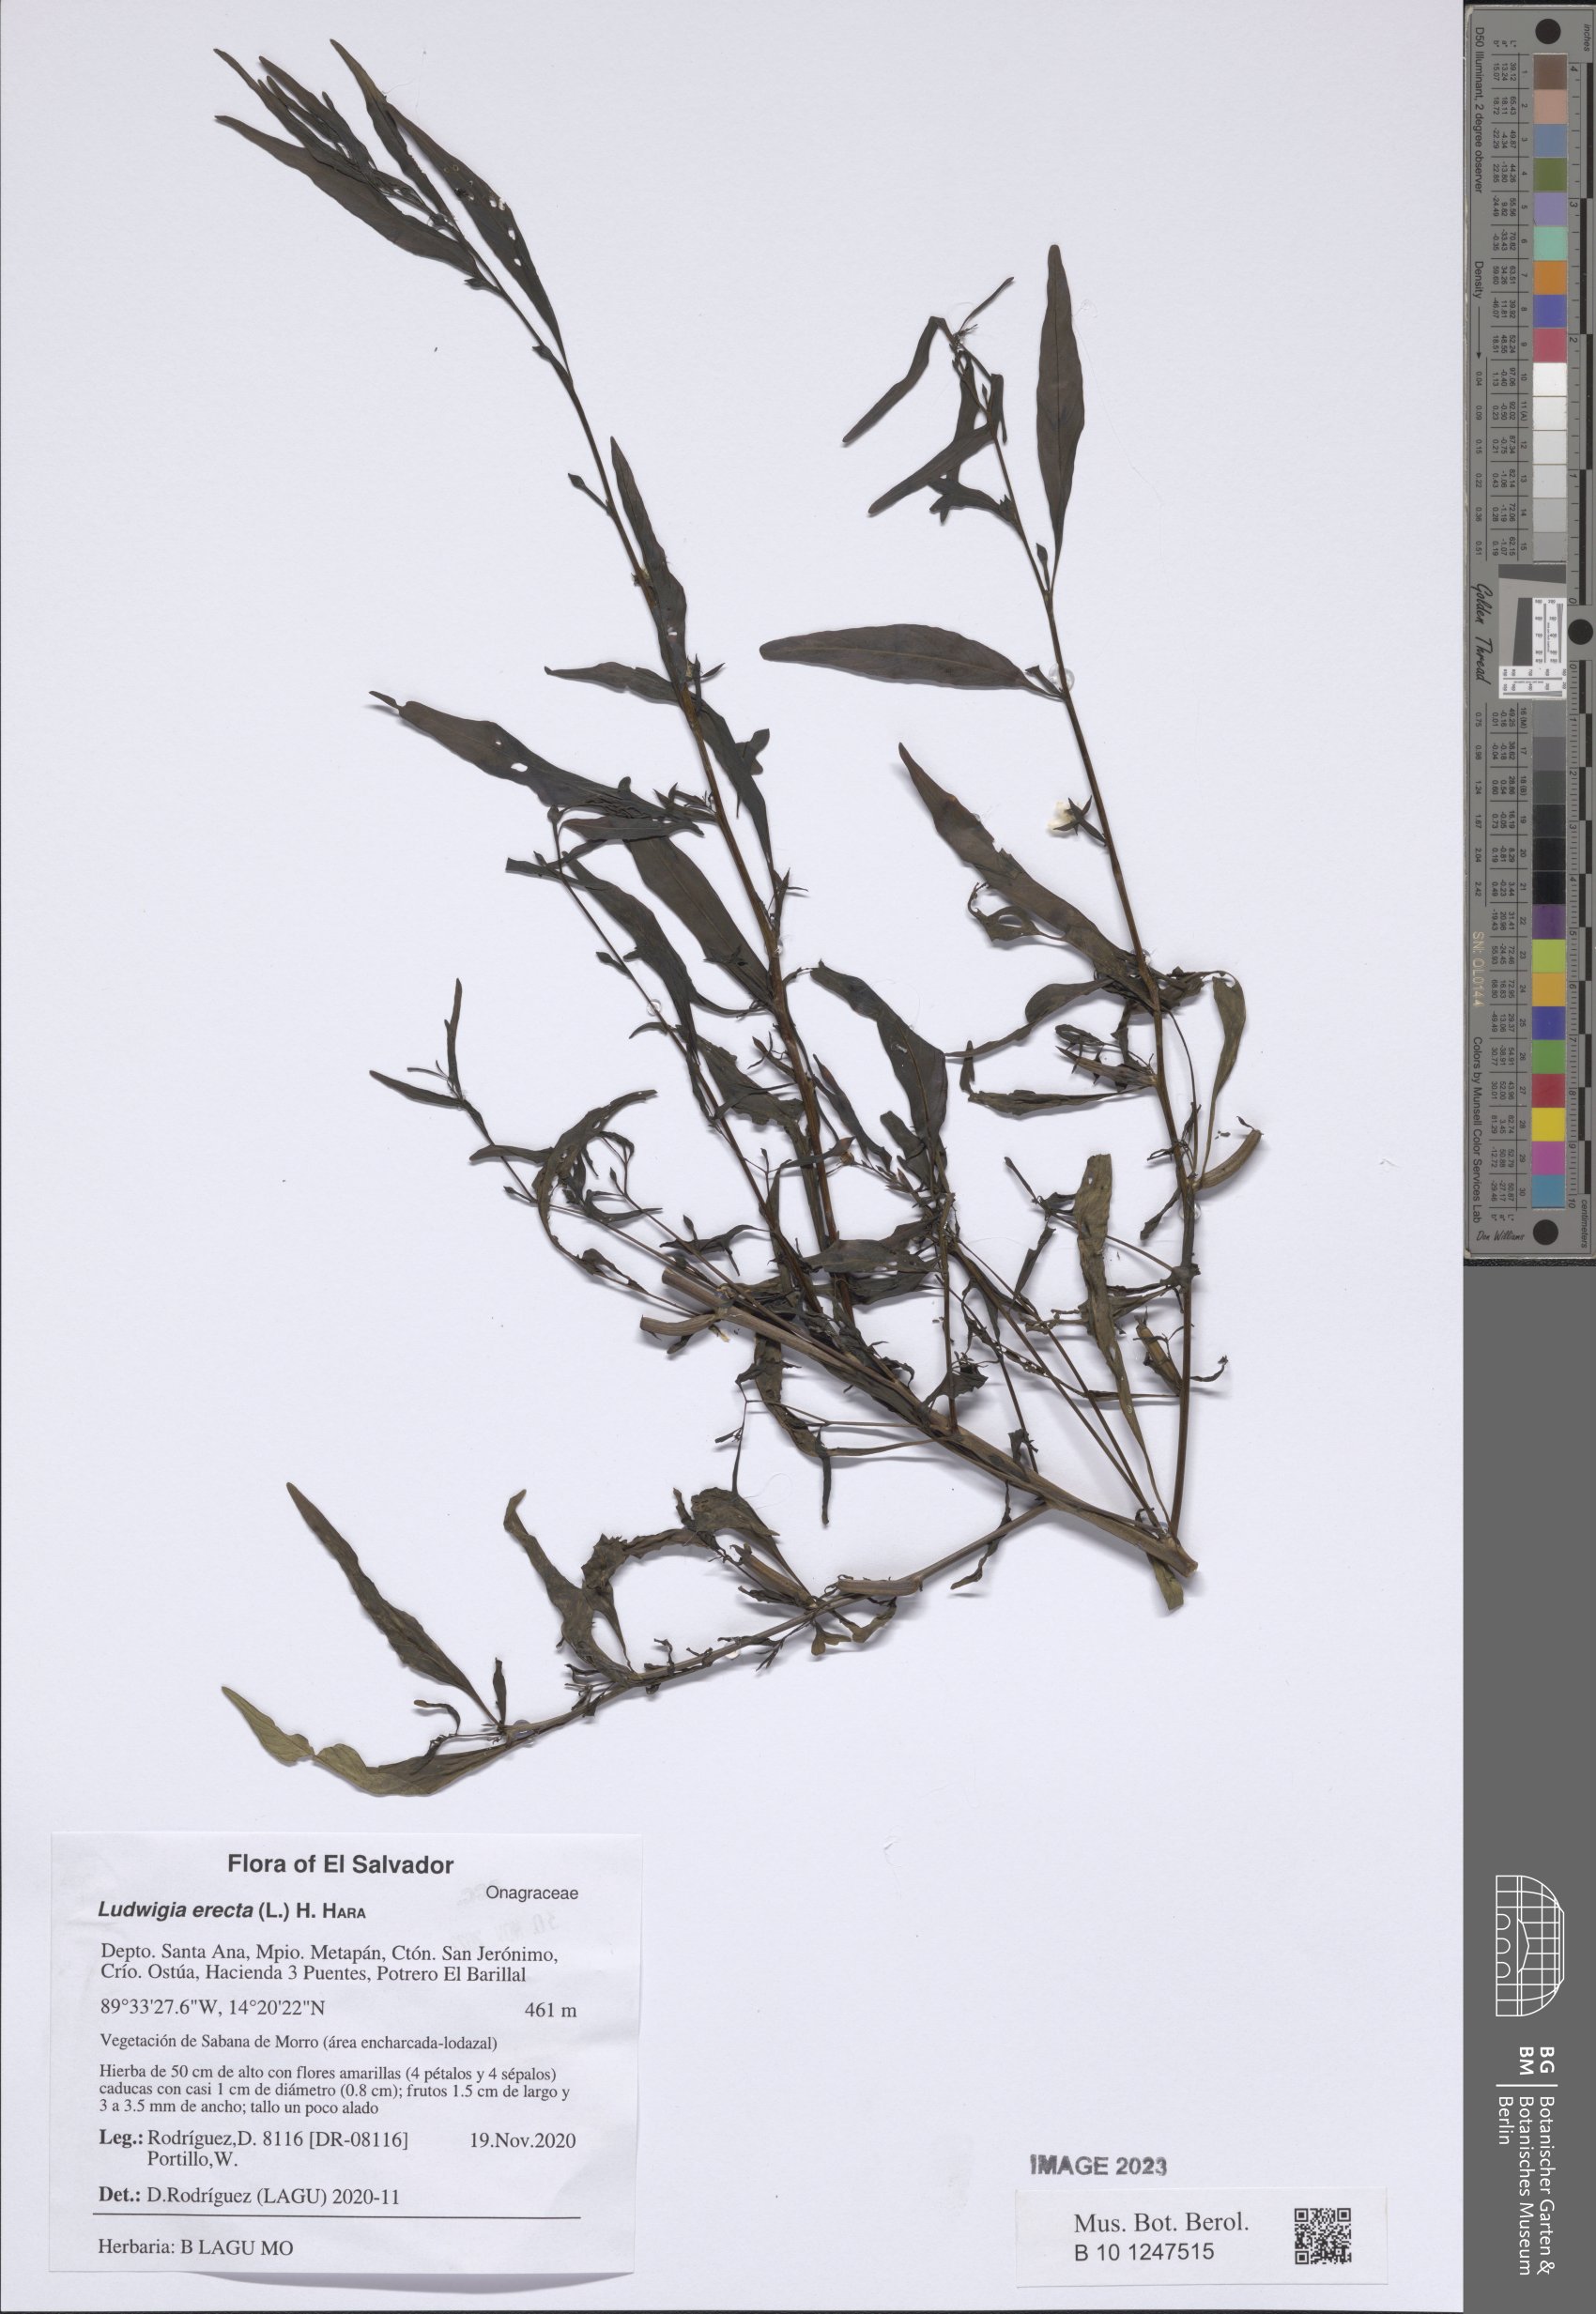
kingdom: Plantae
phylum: Tracheophyta
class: Magnoliopsida
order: Myrtales
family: Onagraceae
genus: Ludwigia
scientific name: Ludwigia erecta
